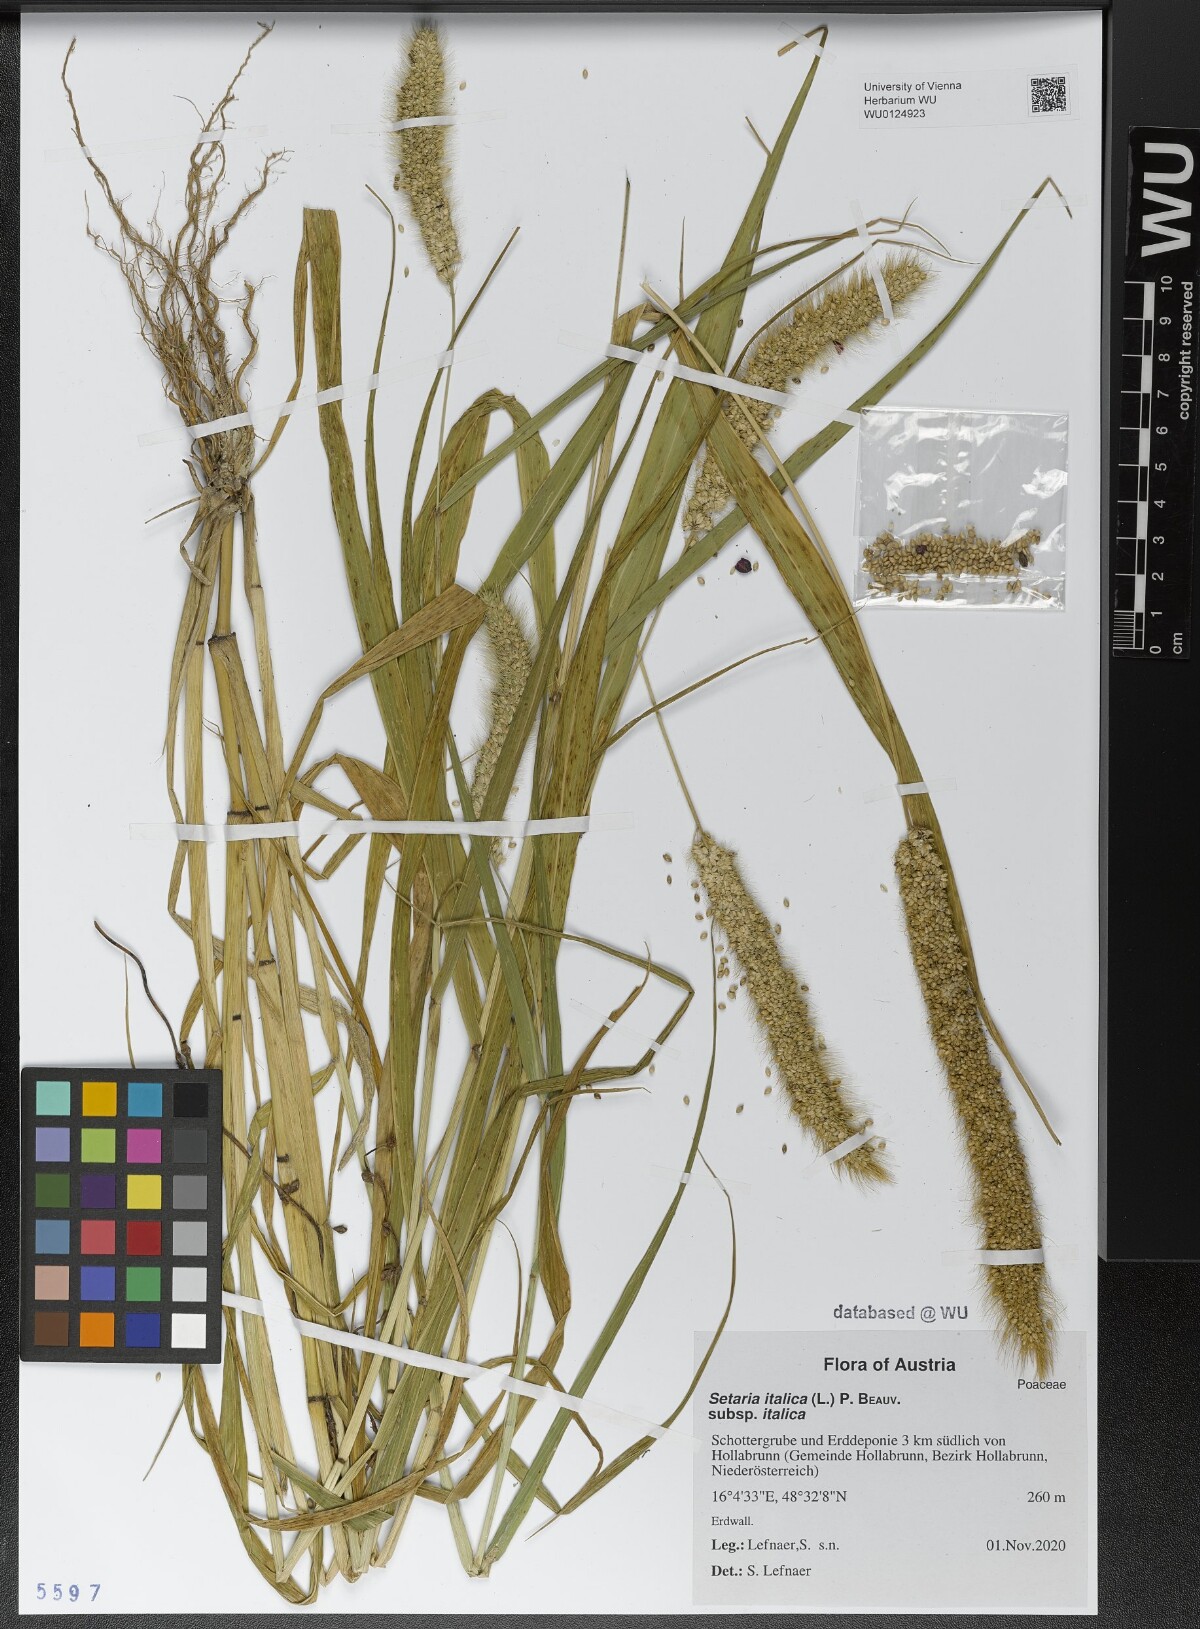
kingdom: Plantae
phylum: Tracheophyta
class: Liliopsida
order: Poales
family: Poaceae
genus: Setaria
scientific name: Setaria italica
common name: Foxtail bristle-grass
